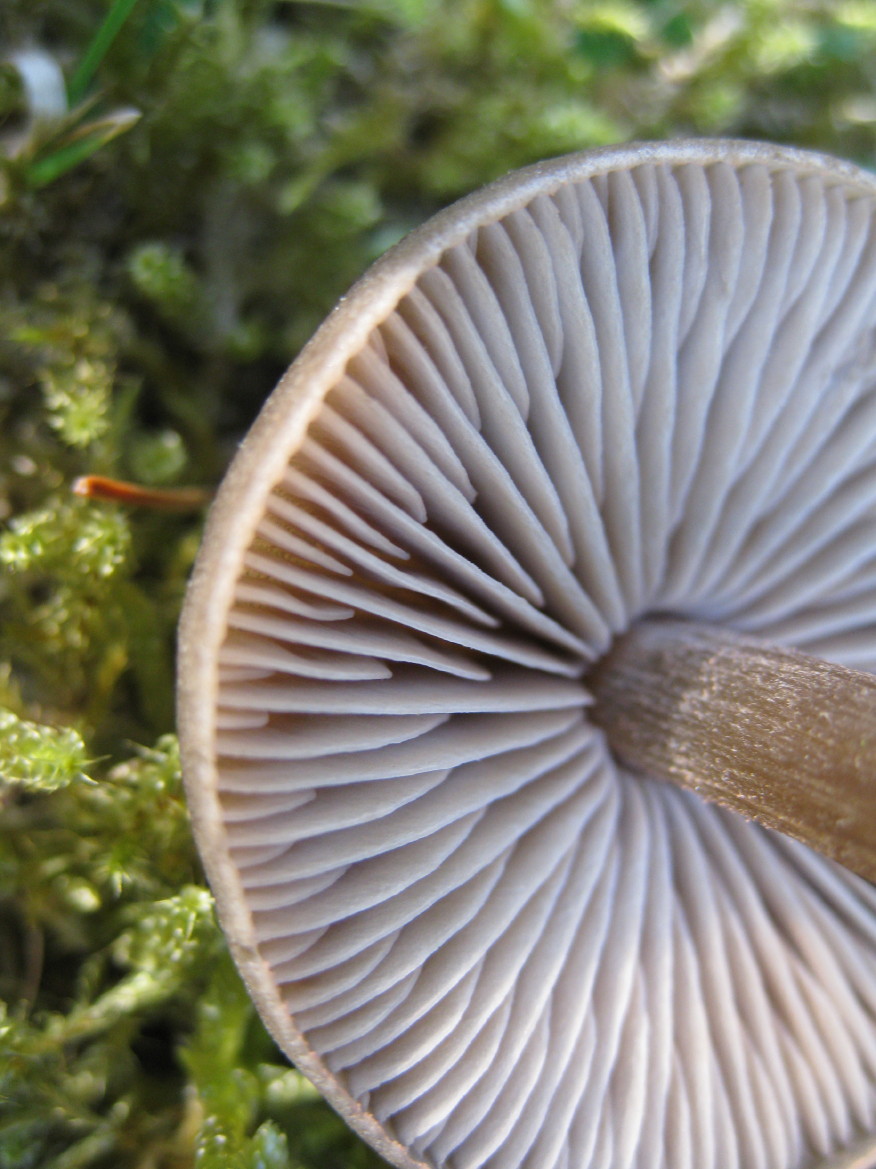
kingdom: Fungi
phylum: Basidiomycota
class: Agaricomycetes
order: Agaricales
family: Entolomataceae
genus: Entoloma
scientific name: Entoloma vernum
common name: vår-rødblad
